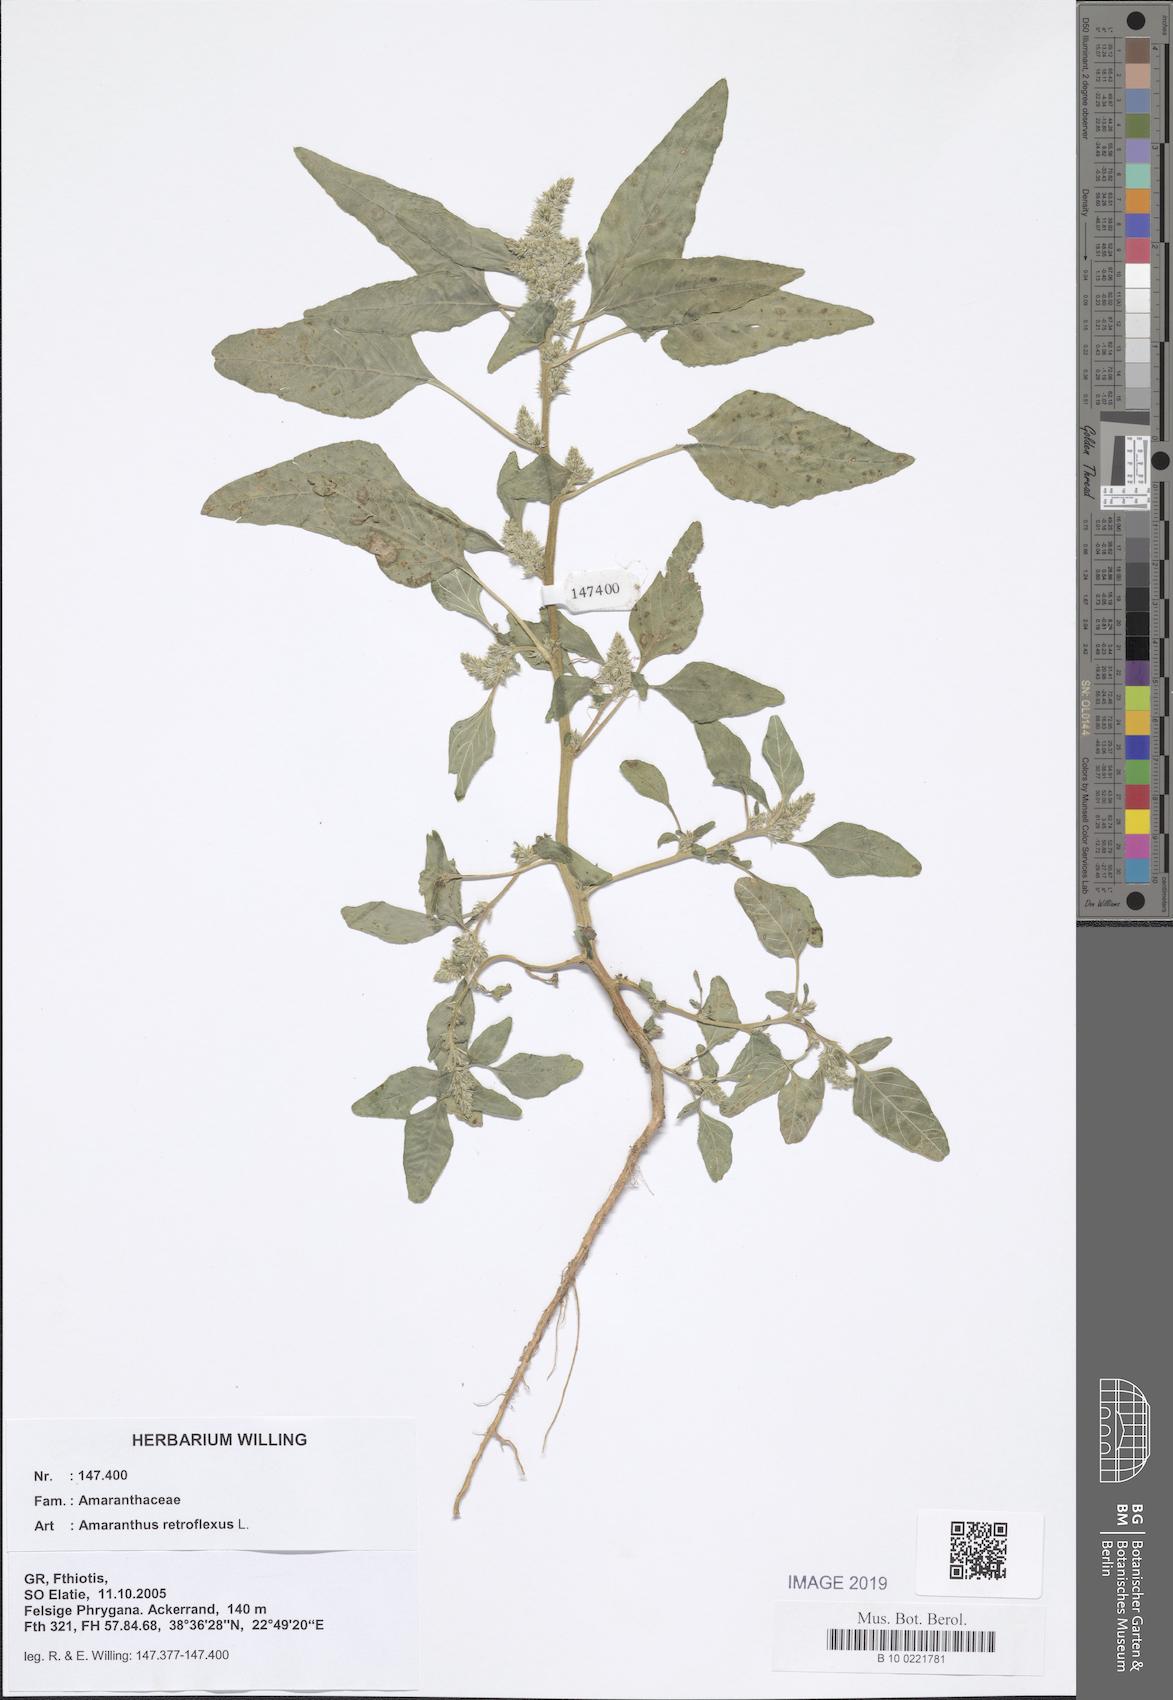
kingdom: Plantae
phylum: Tracheophyta
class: Magnoliopsida
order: Caryophyllales
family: Amaranthaceae
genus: Amaranthus
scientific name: Amaranthus retroflexus
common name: Redroot amaranth
